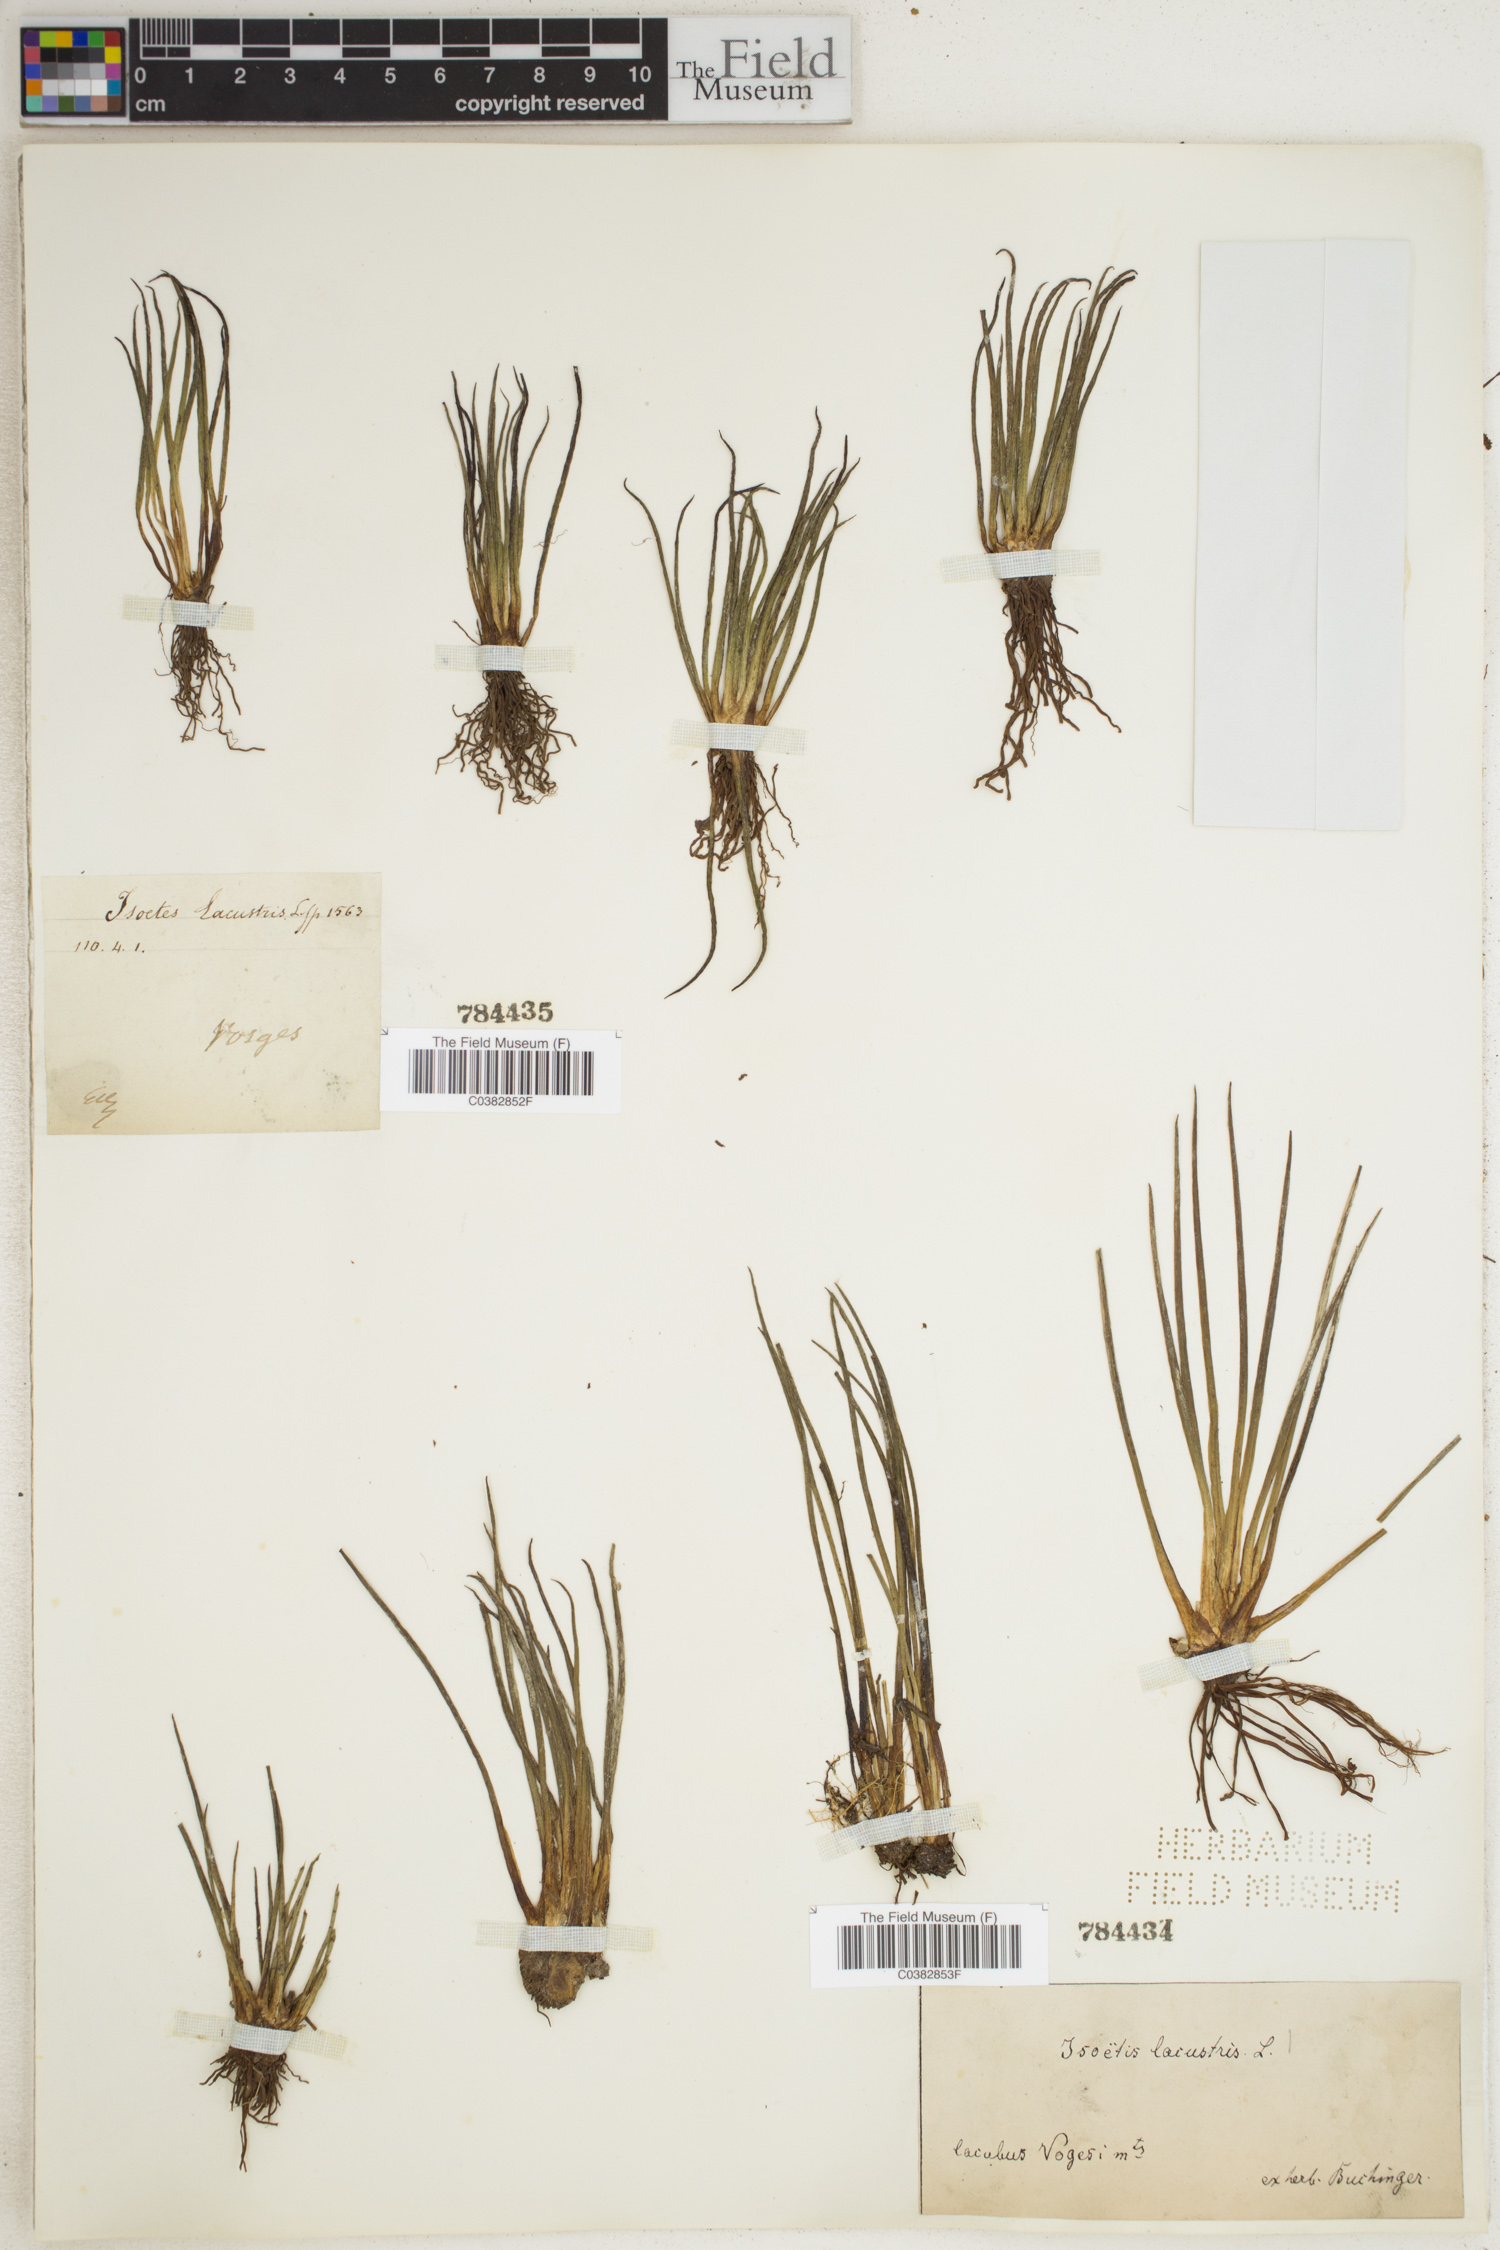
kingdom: Plantae
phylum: Tracheophyta
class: Lycopodiopsida
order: Isoetales
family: Isoetaceae
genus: Isoetes
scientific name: Isoetes lacustris
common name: Common quillwort
